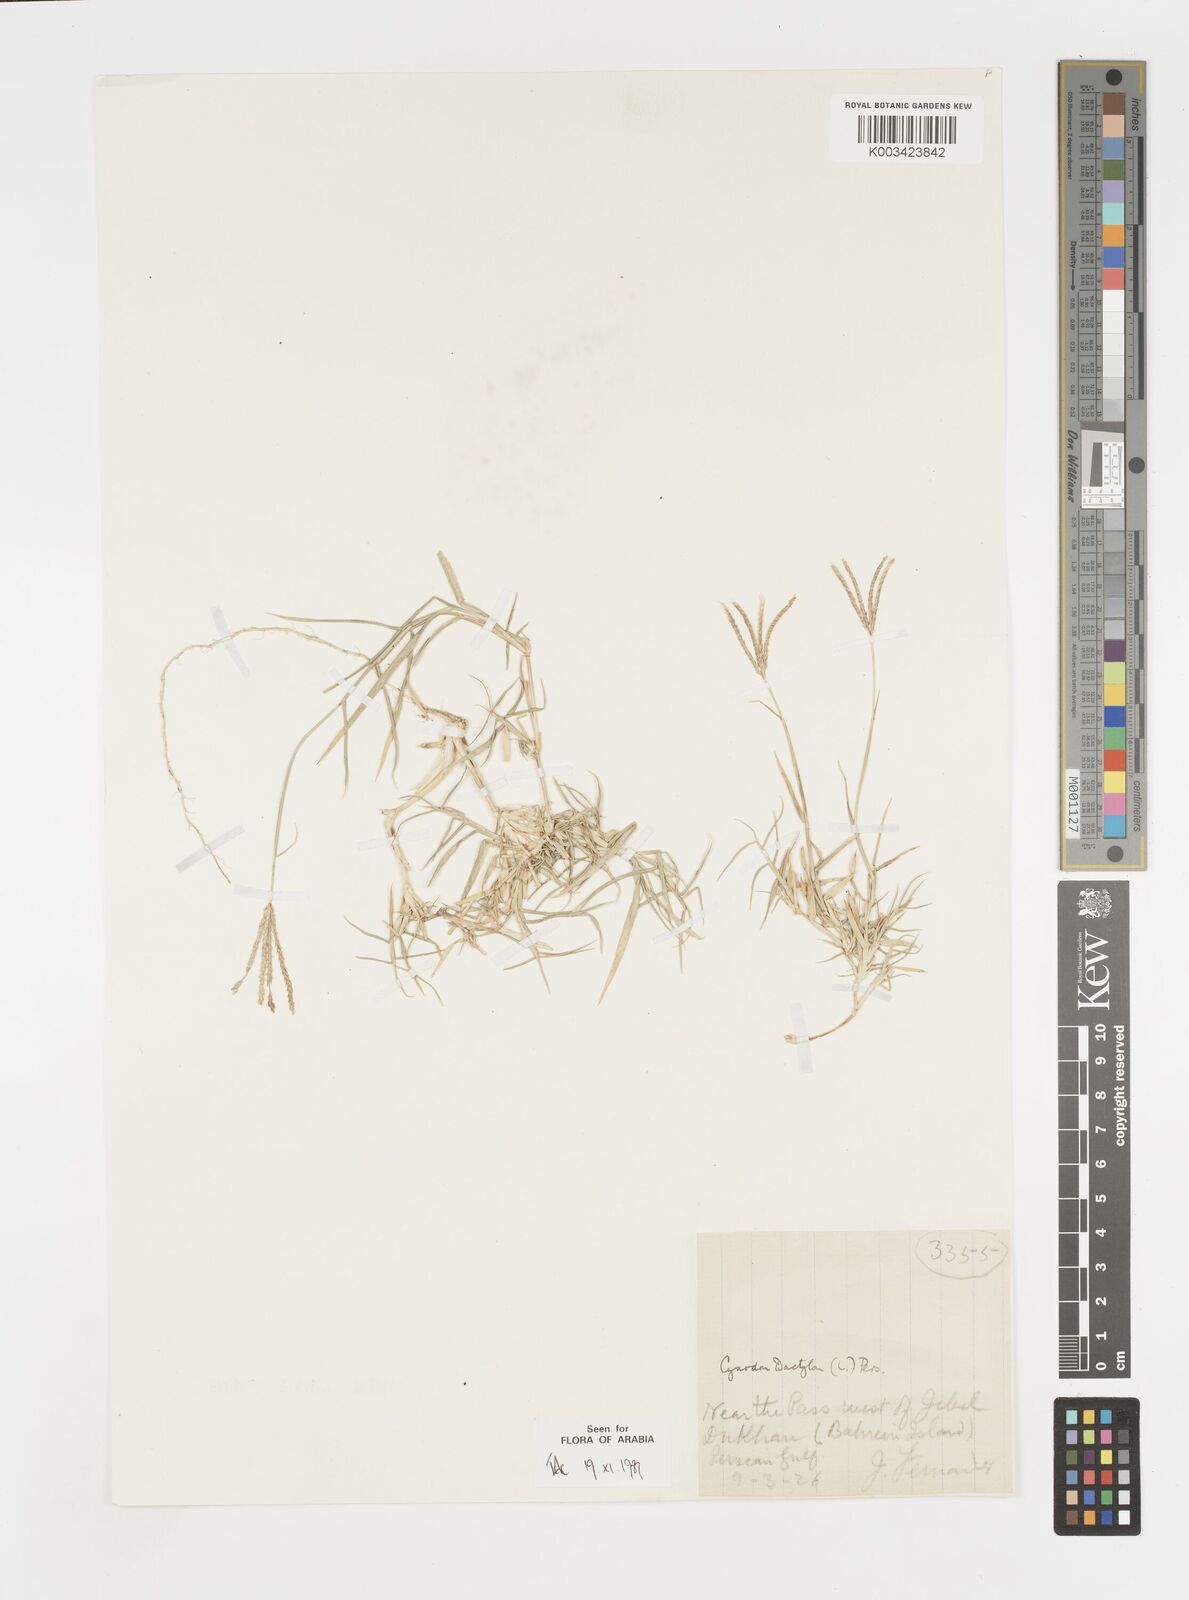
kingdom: Plantae
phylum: Tracheophyta
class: Liliopsida
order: Poales
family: Poaceae
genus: Cynodon
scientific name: Cynodon dactylon
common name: Bermuda grass
